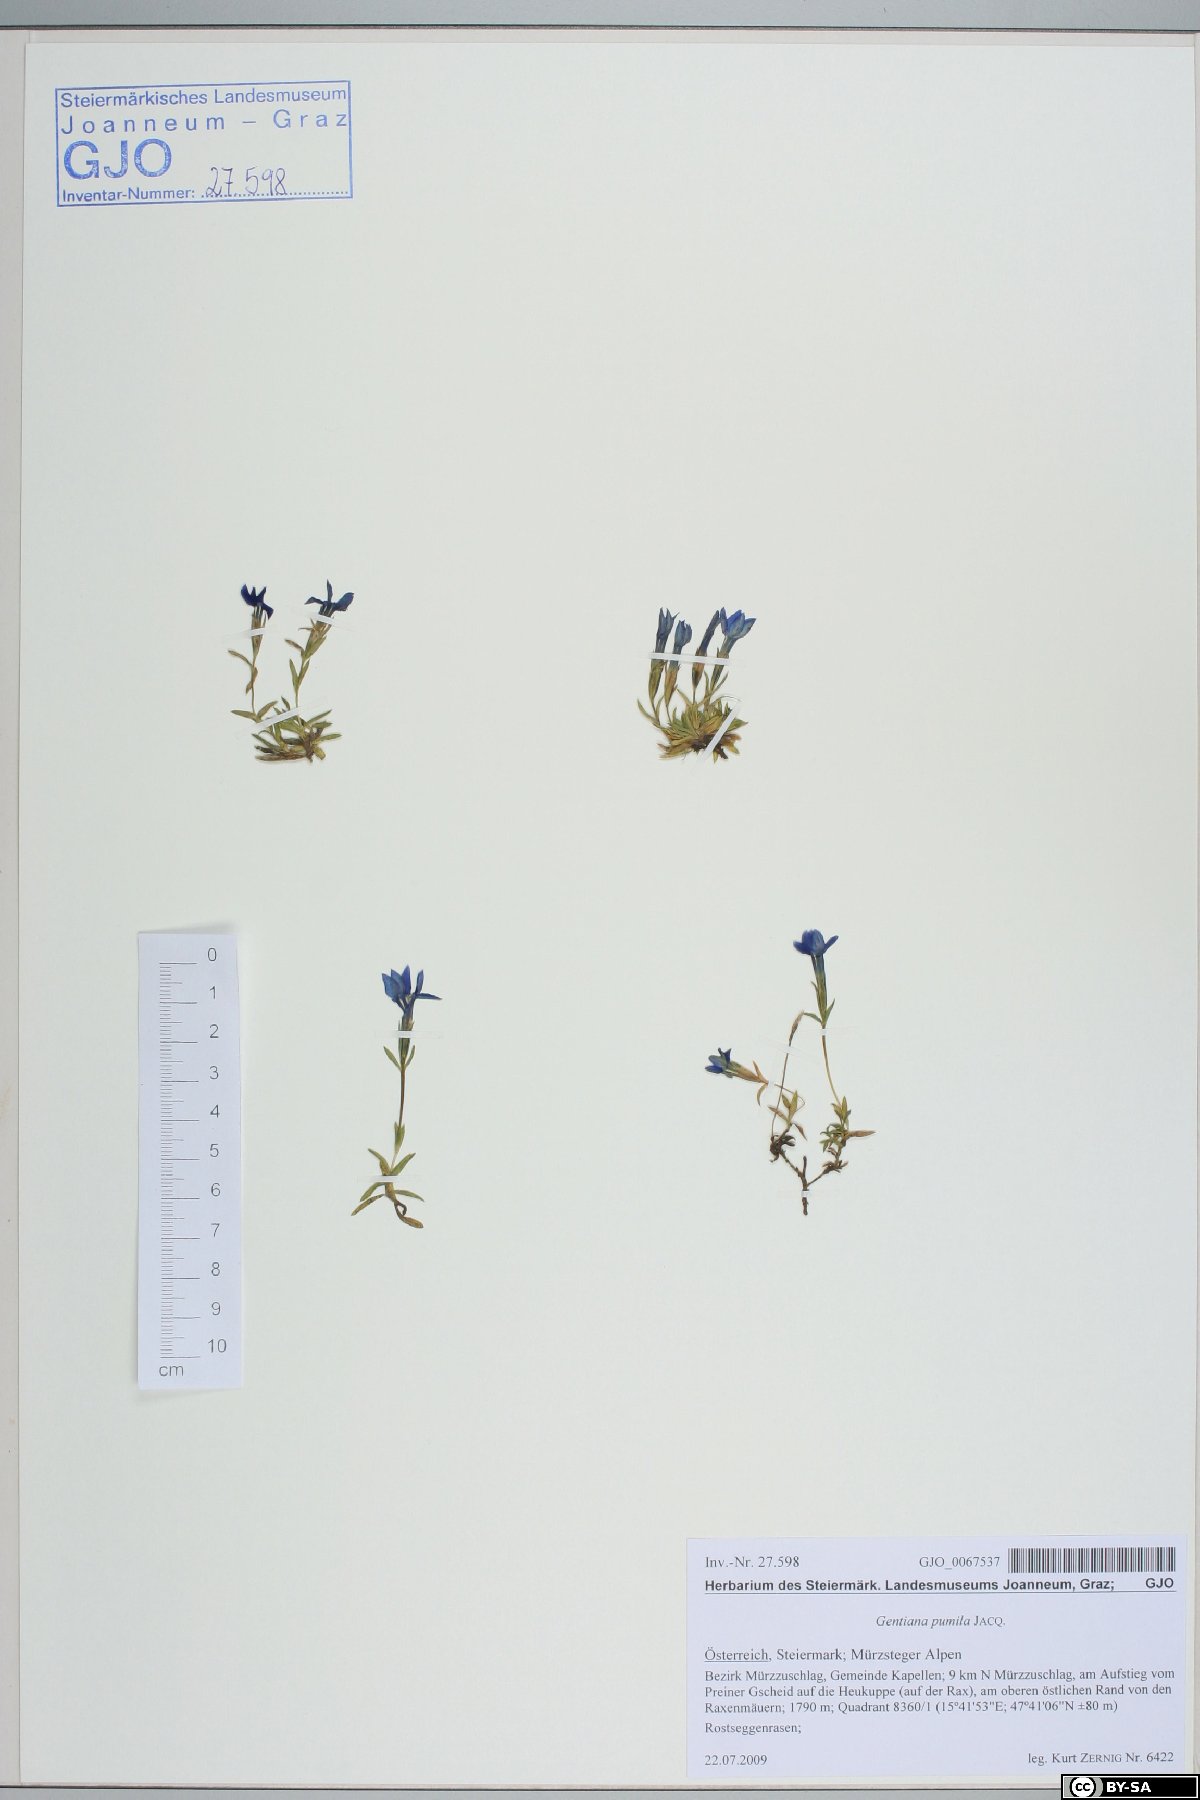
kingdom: Plantae
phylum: Tracheophyta
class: Magnoliopsida
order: Gentianales
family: Gentianaceae
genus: Gentiana
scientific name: Gentiana pumila
